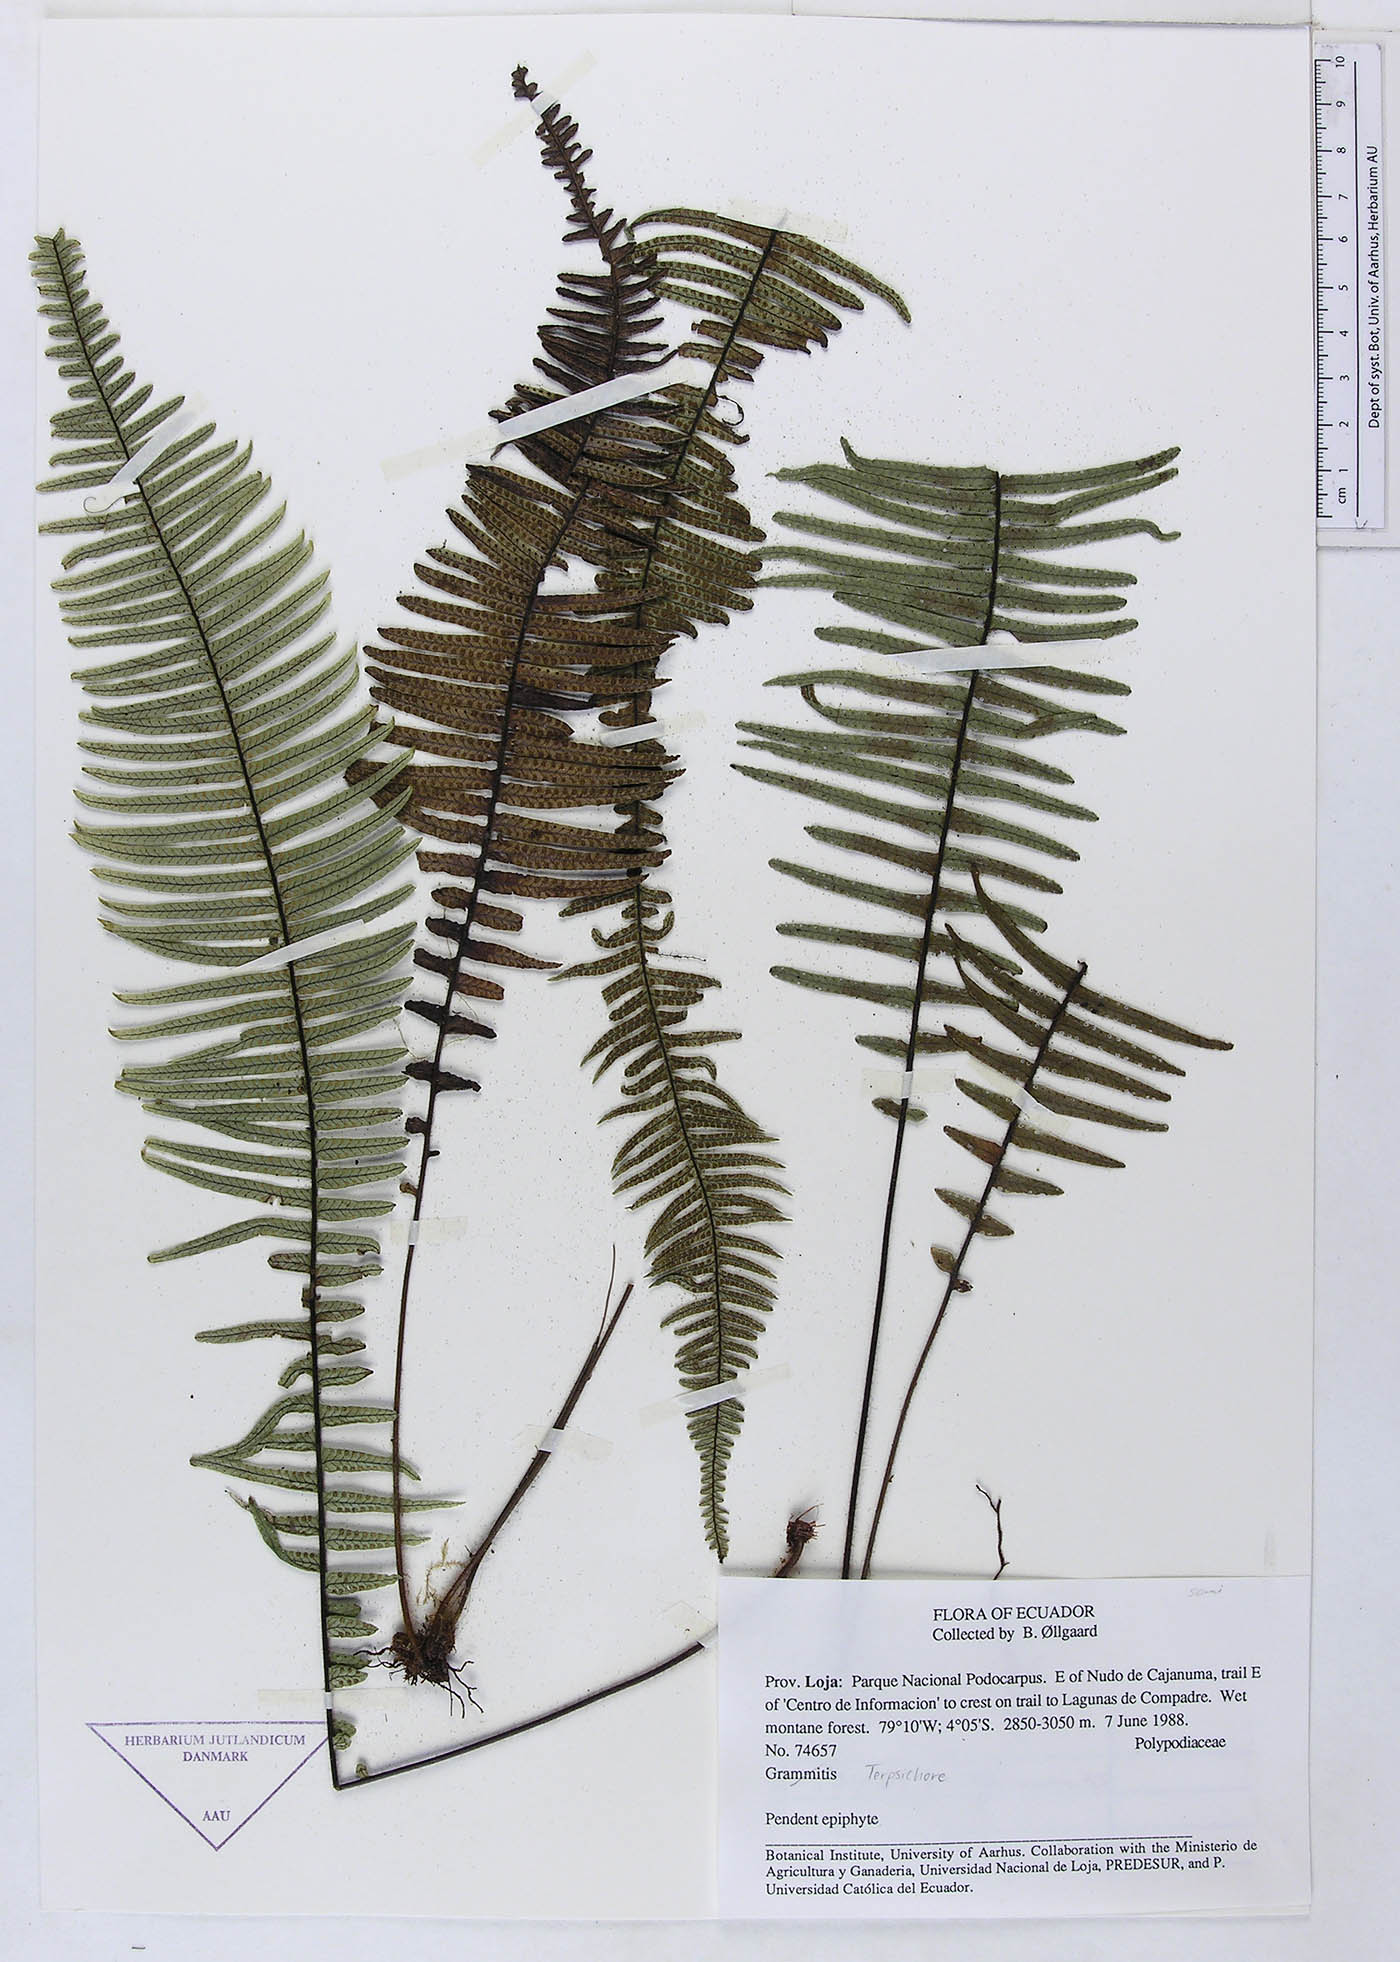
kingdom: Plantae
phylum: Tracheophyta
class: Polypodiopsida
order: Polypodiales
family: Polypodiaceae
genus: Grammitis
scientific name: Grammitis
